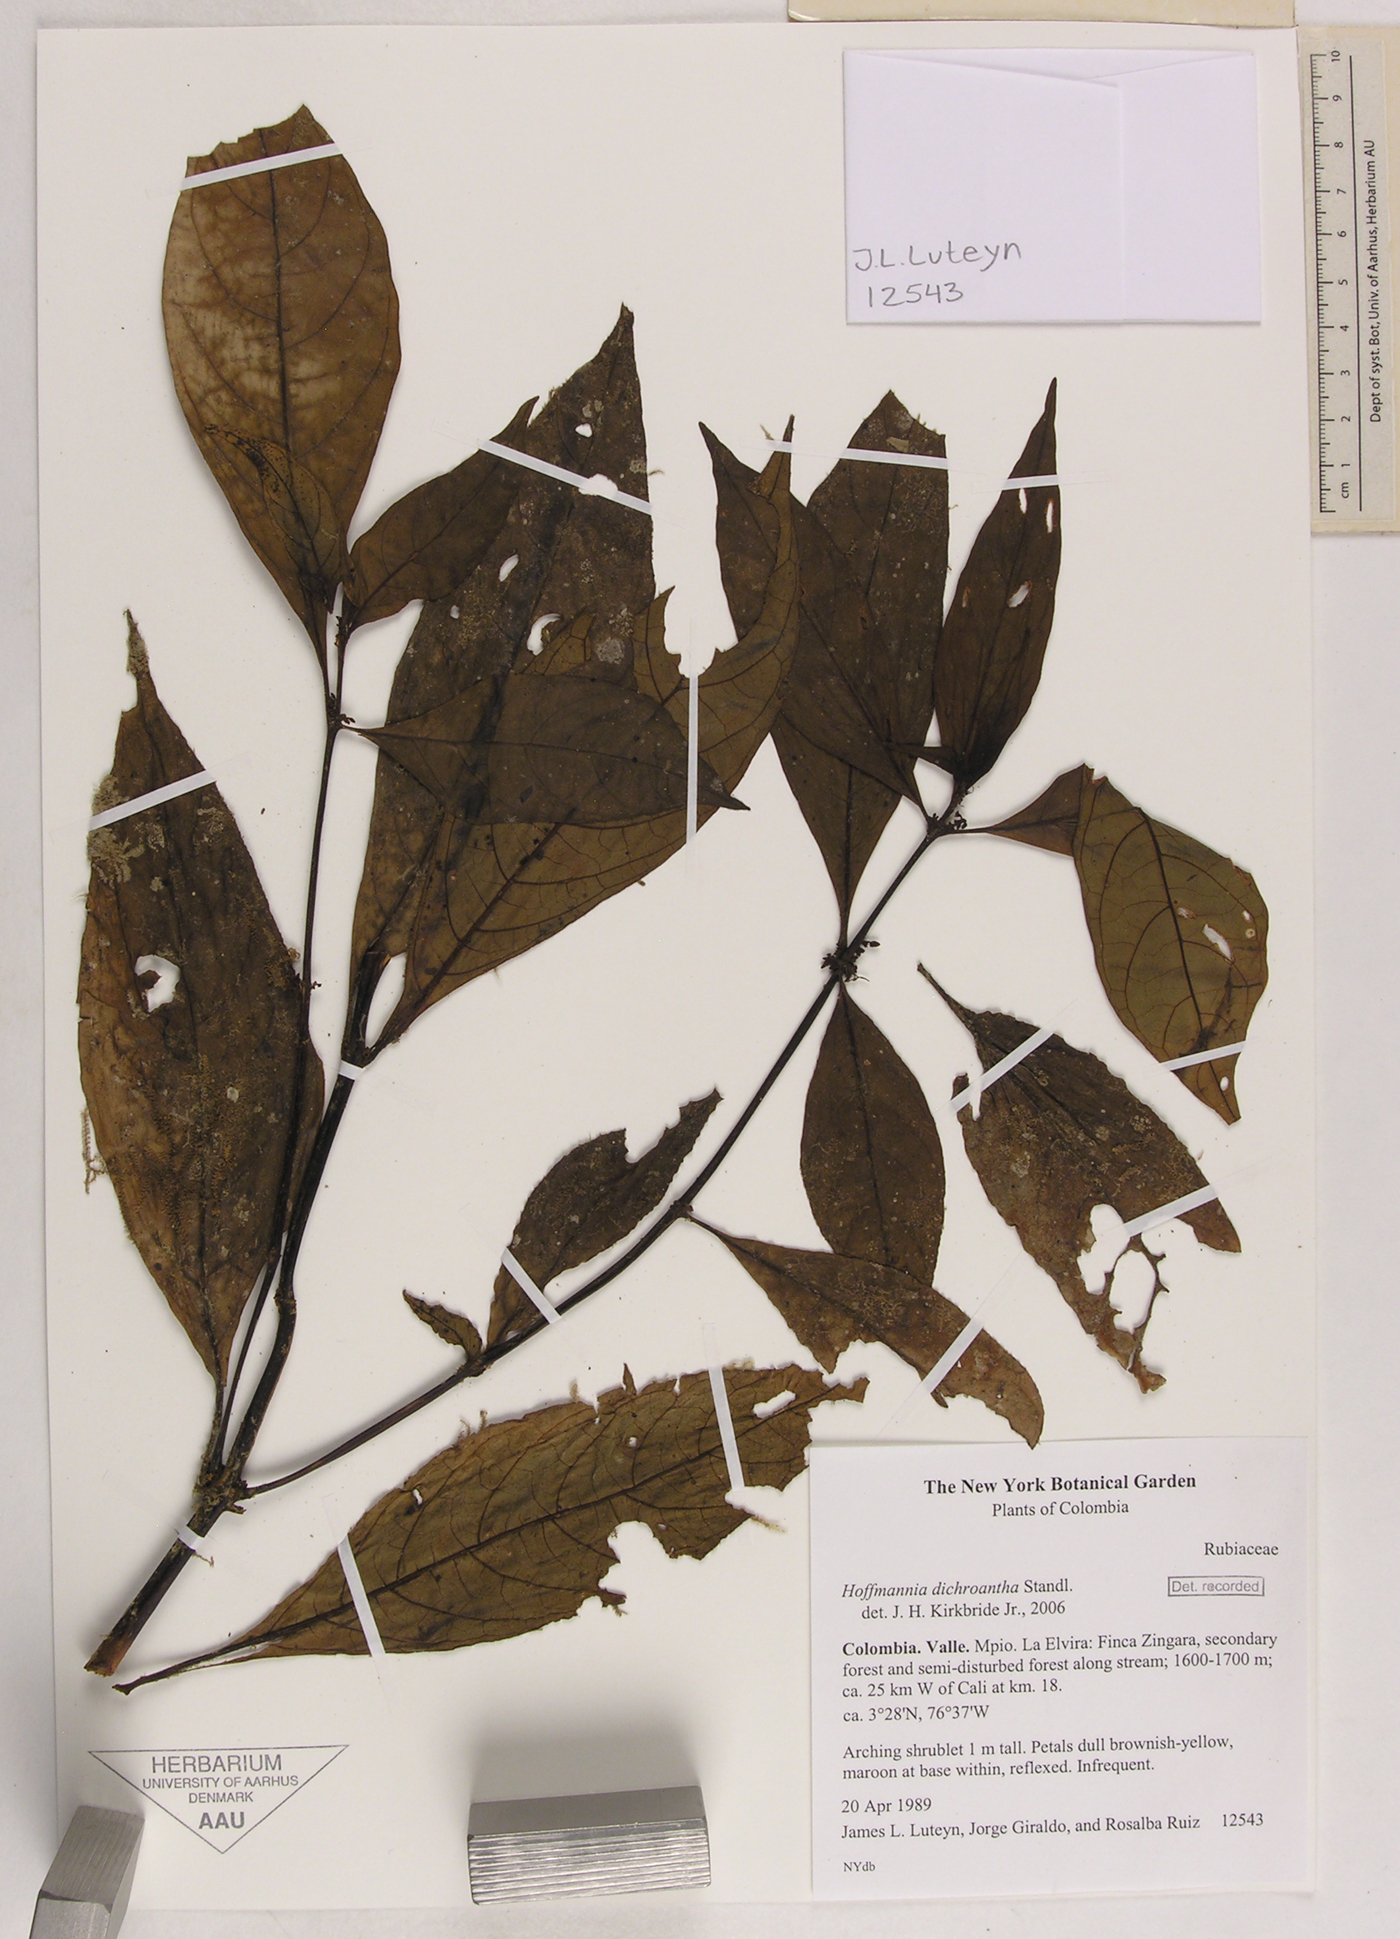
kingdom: Plantae
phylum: Tracheophyta
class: Magnoliopsida
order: Gentianales
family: Rubiaceae
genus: Hoffmannia
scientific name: Hoffmannia dichroantha
